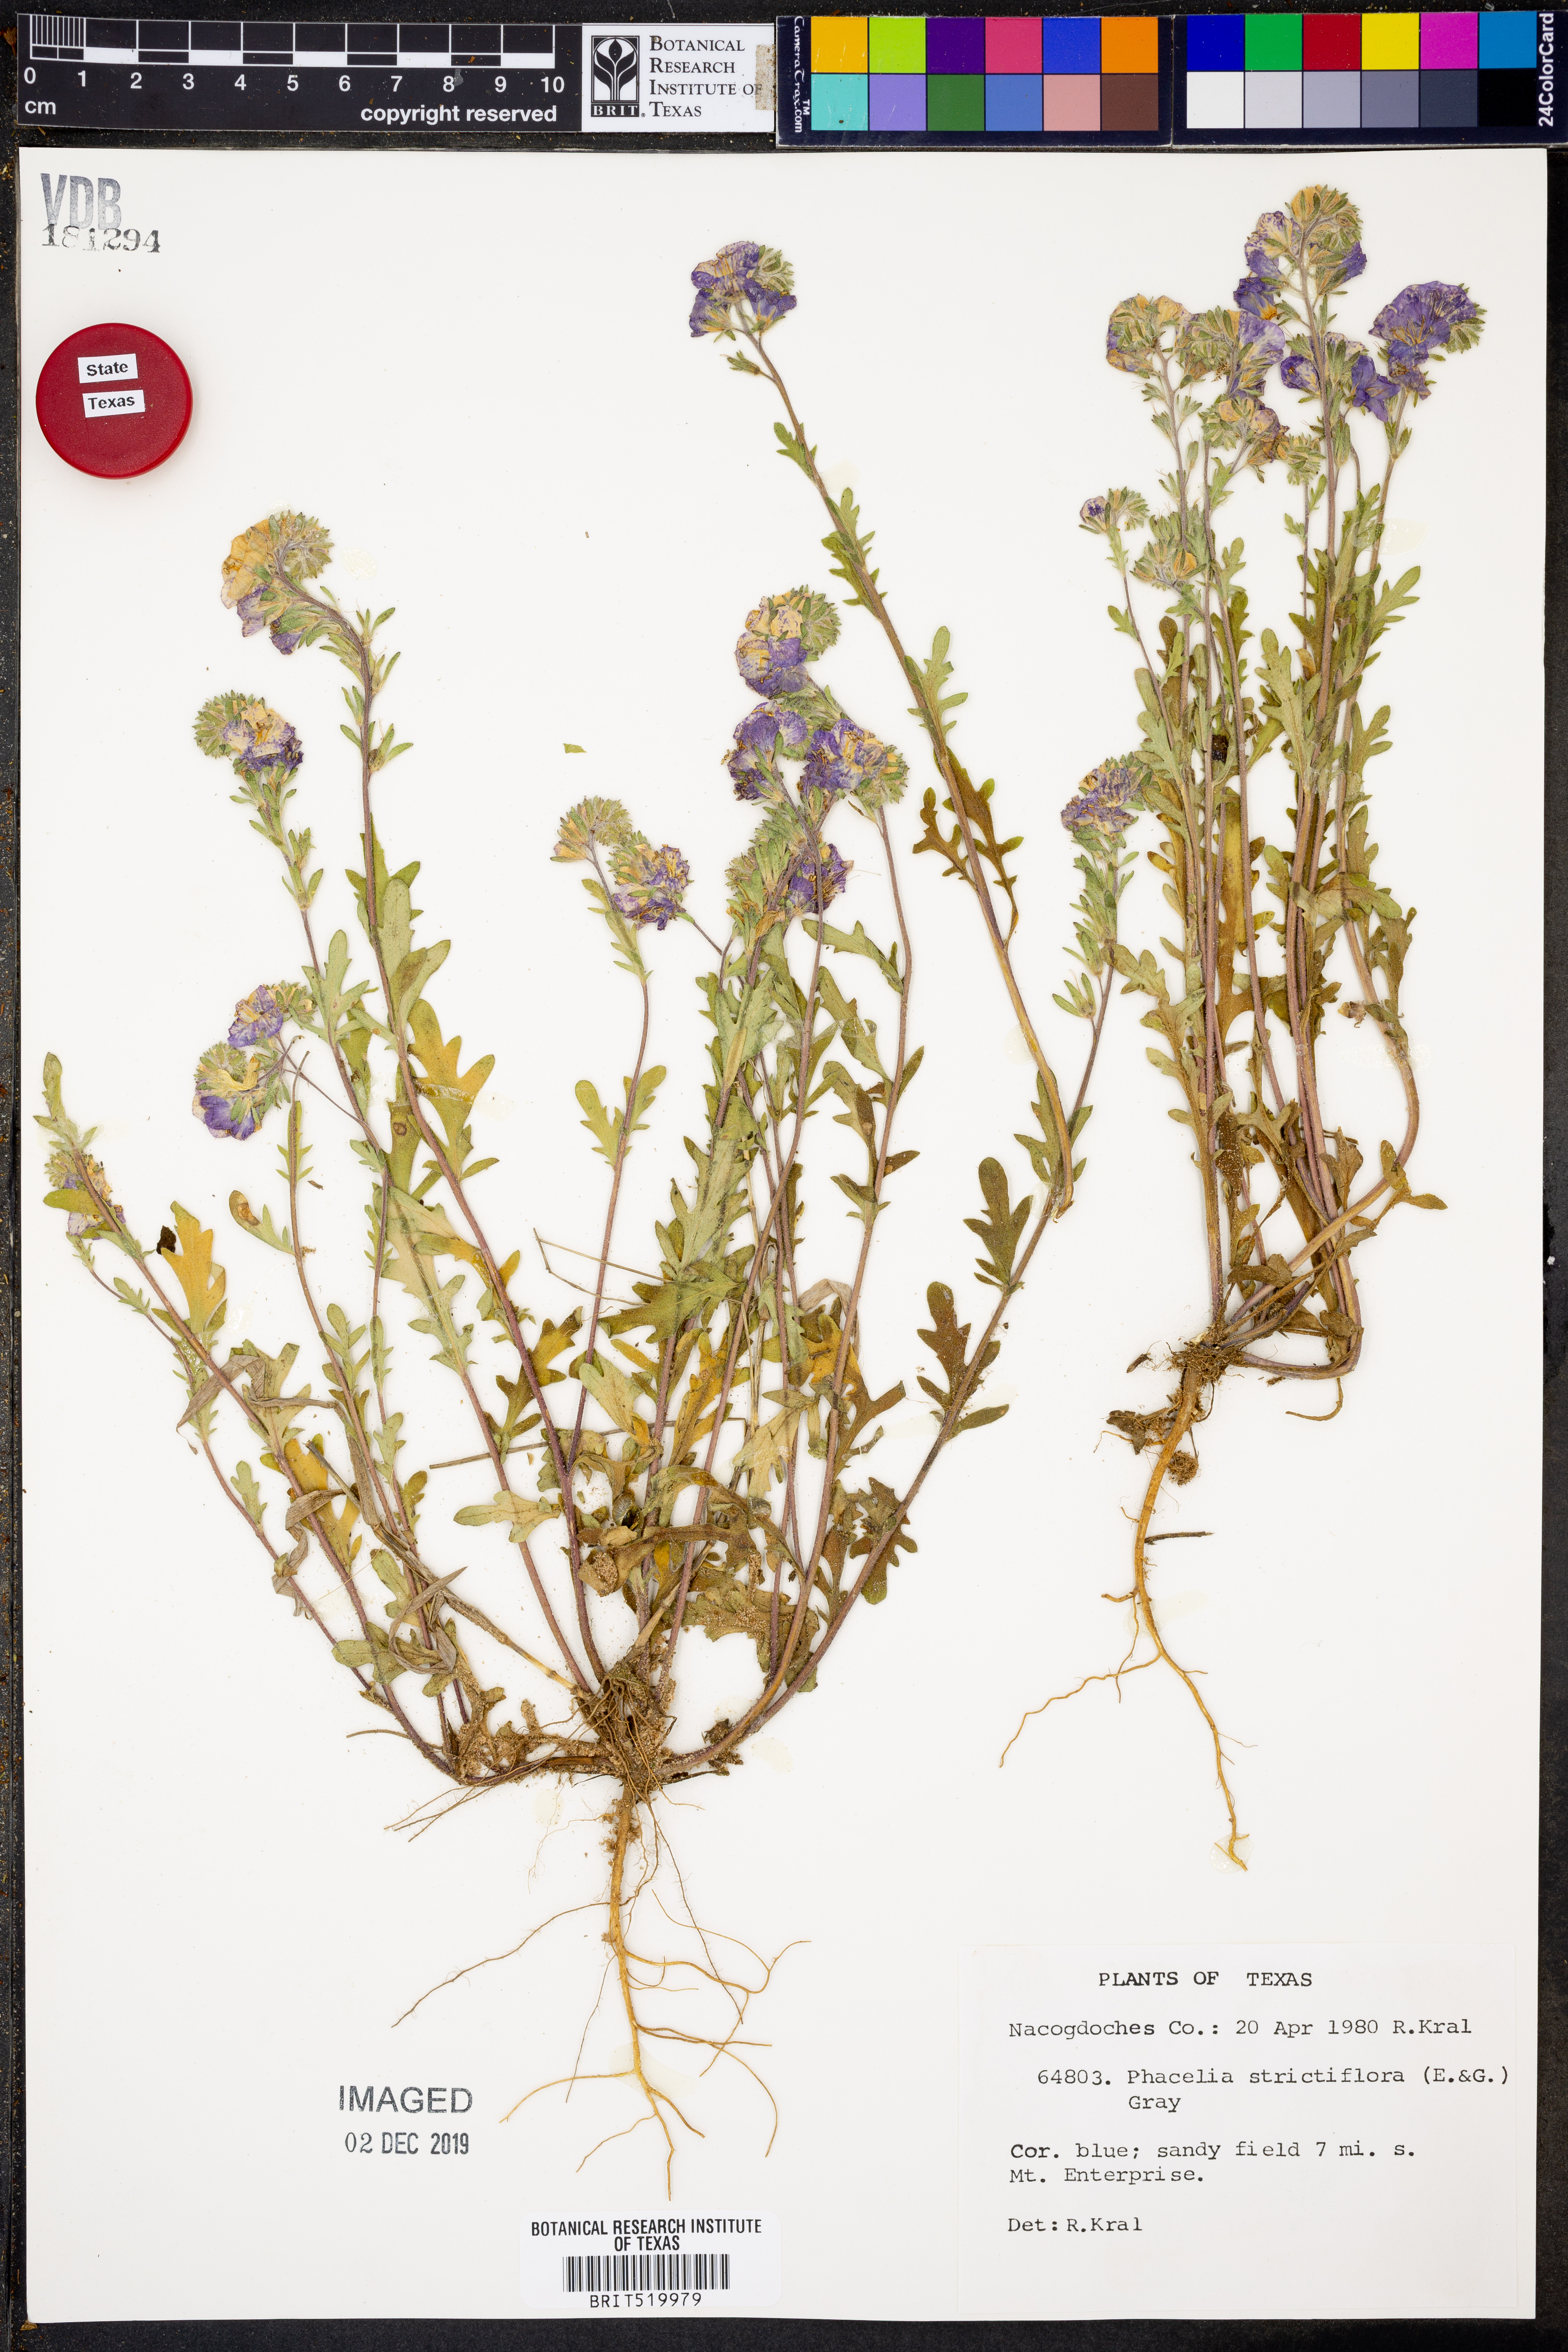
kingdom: Plantae
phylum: Tracheophyta
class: Magnoliopsida
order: Boraginales
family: Hydrophyllaceae
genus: Phacelia
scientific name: Phacelia strictiflora
